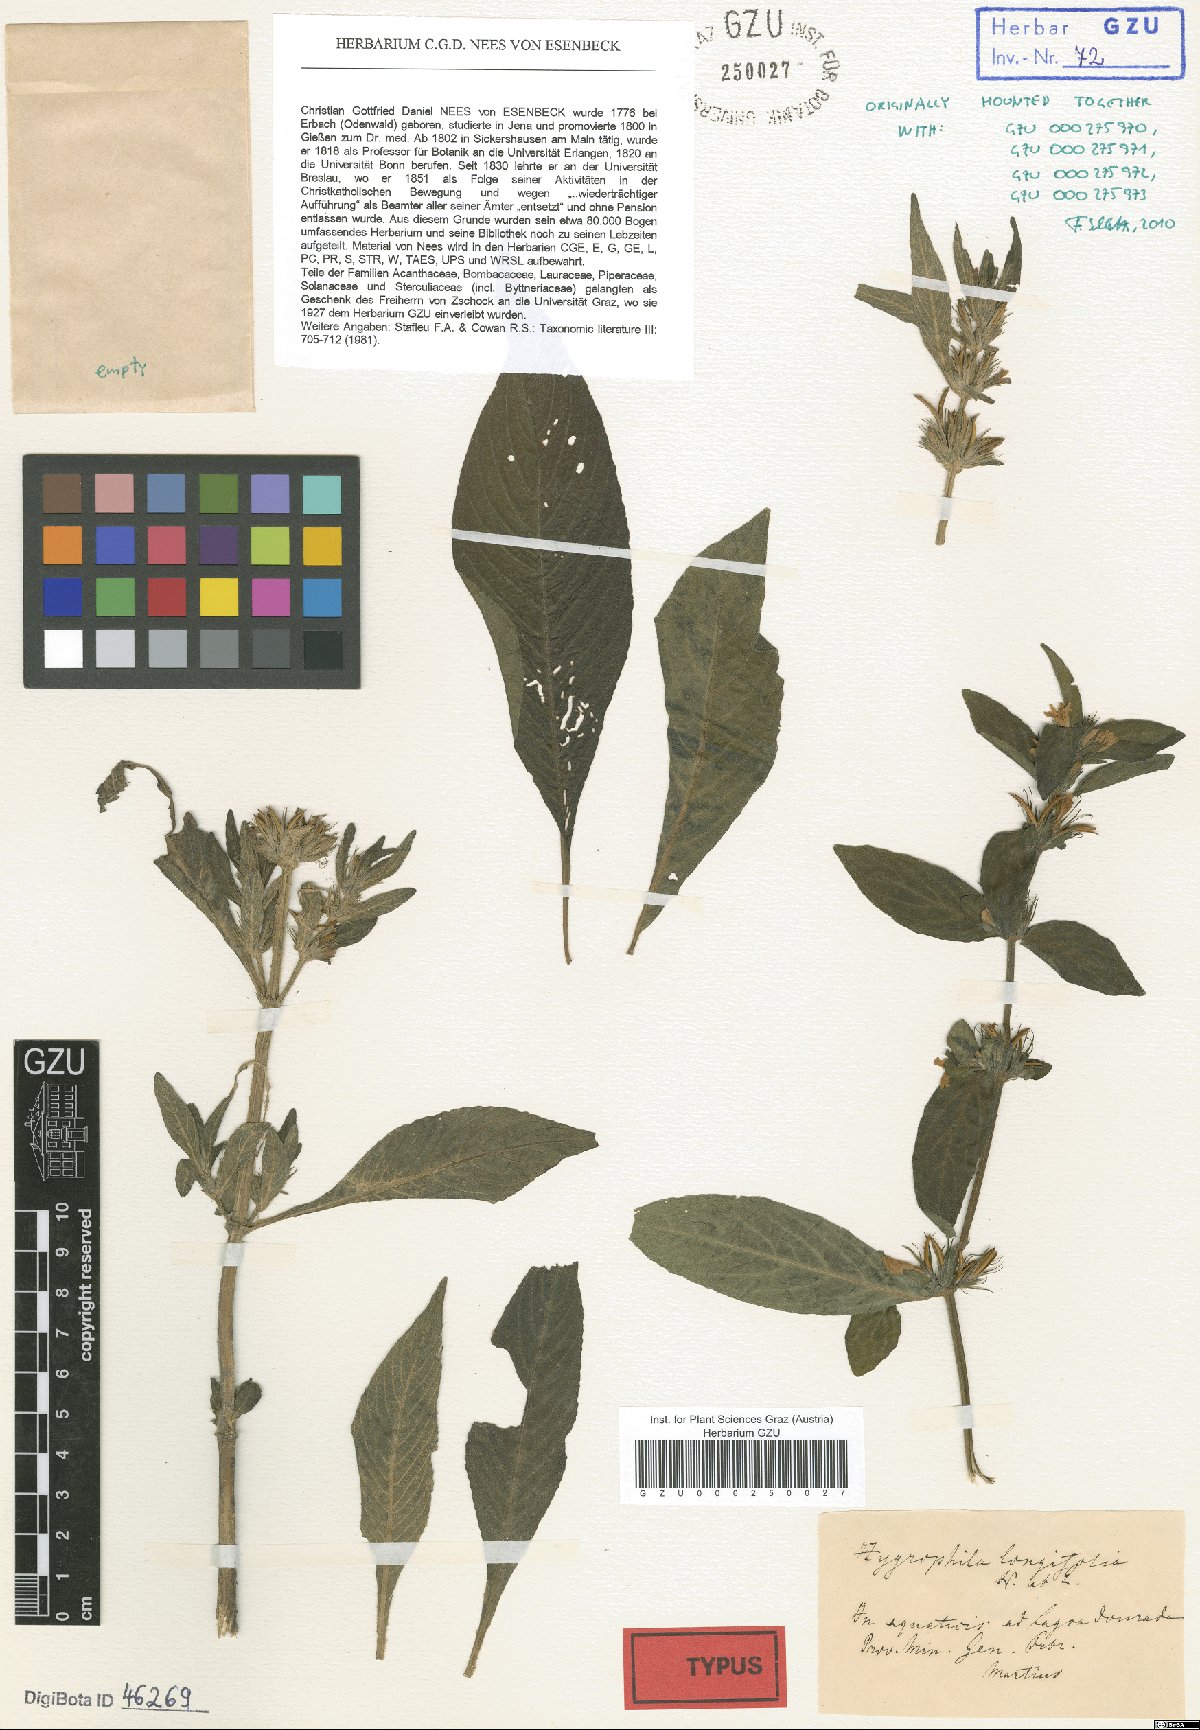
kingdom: Plantae
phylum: Tracheophyta
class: Magnoliopsida
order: Lamiales
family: Acanthaceae
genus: Hygrophila
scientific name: Hygrophila costata
